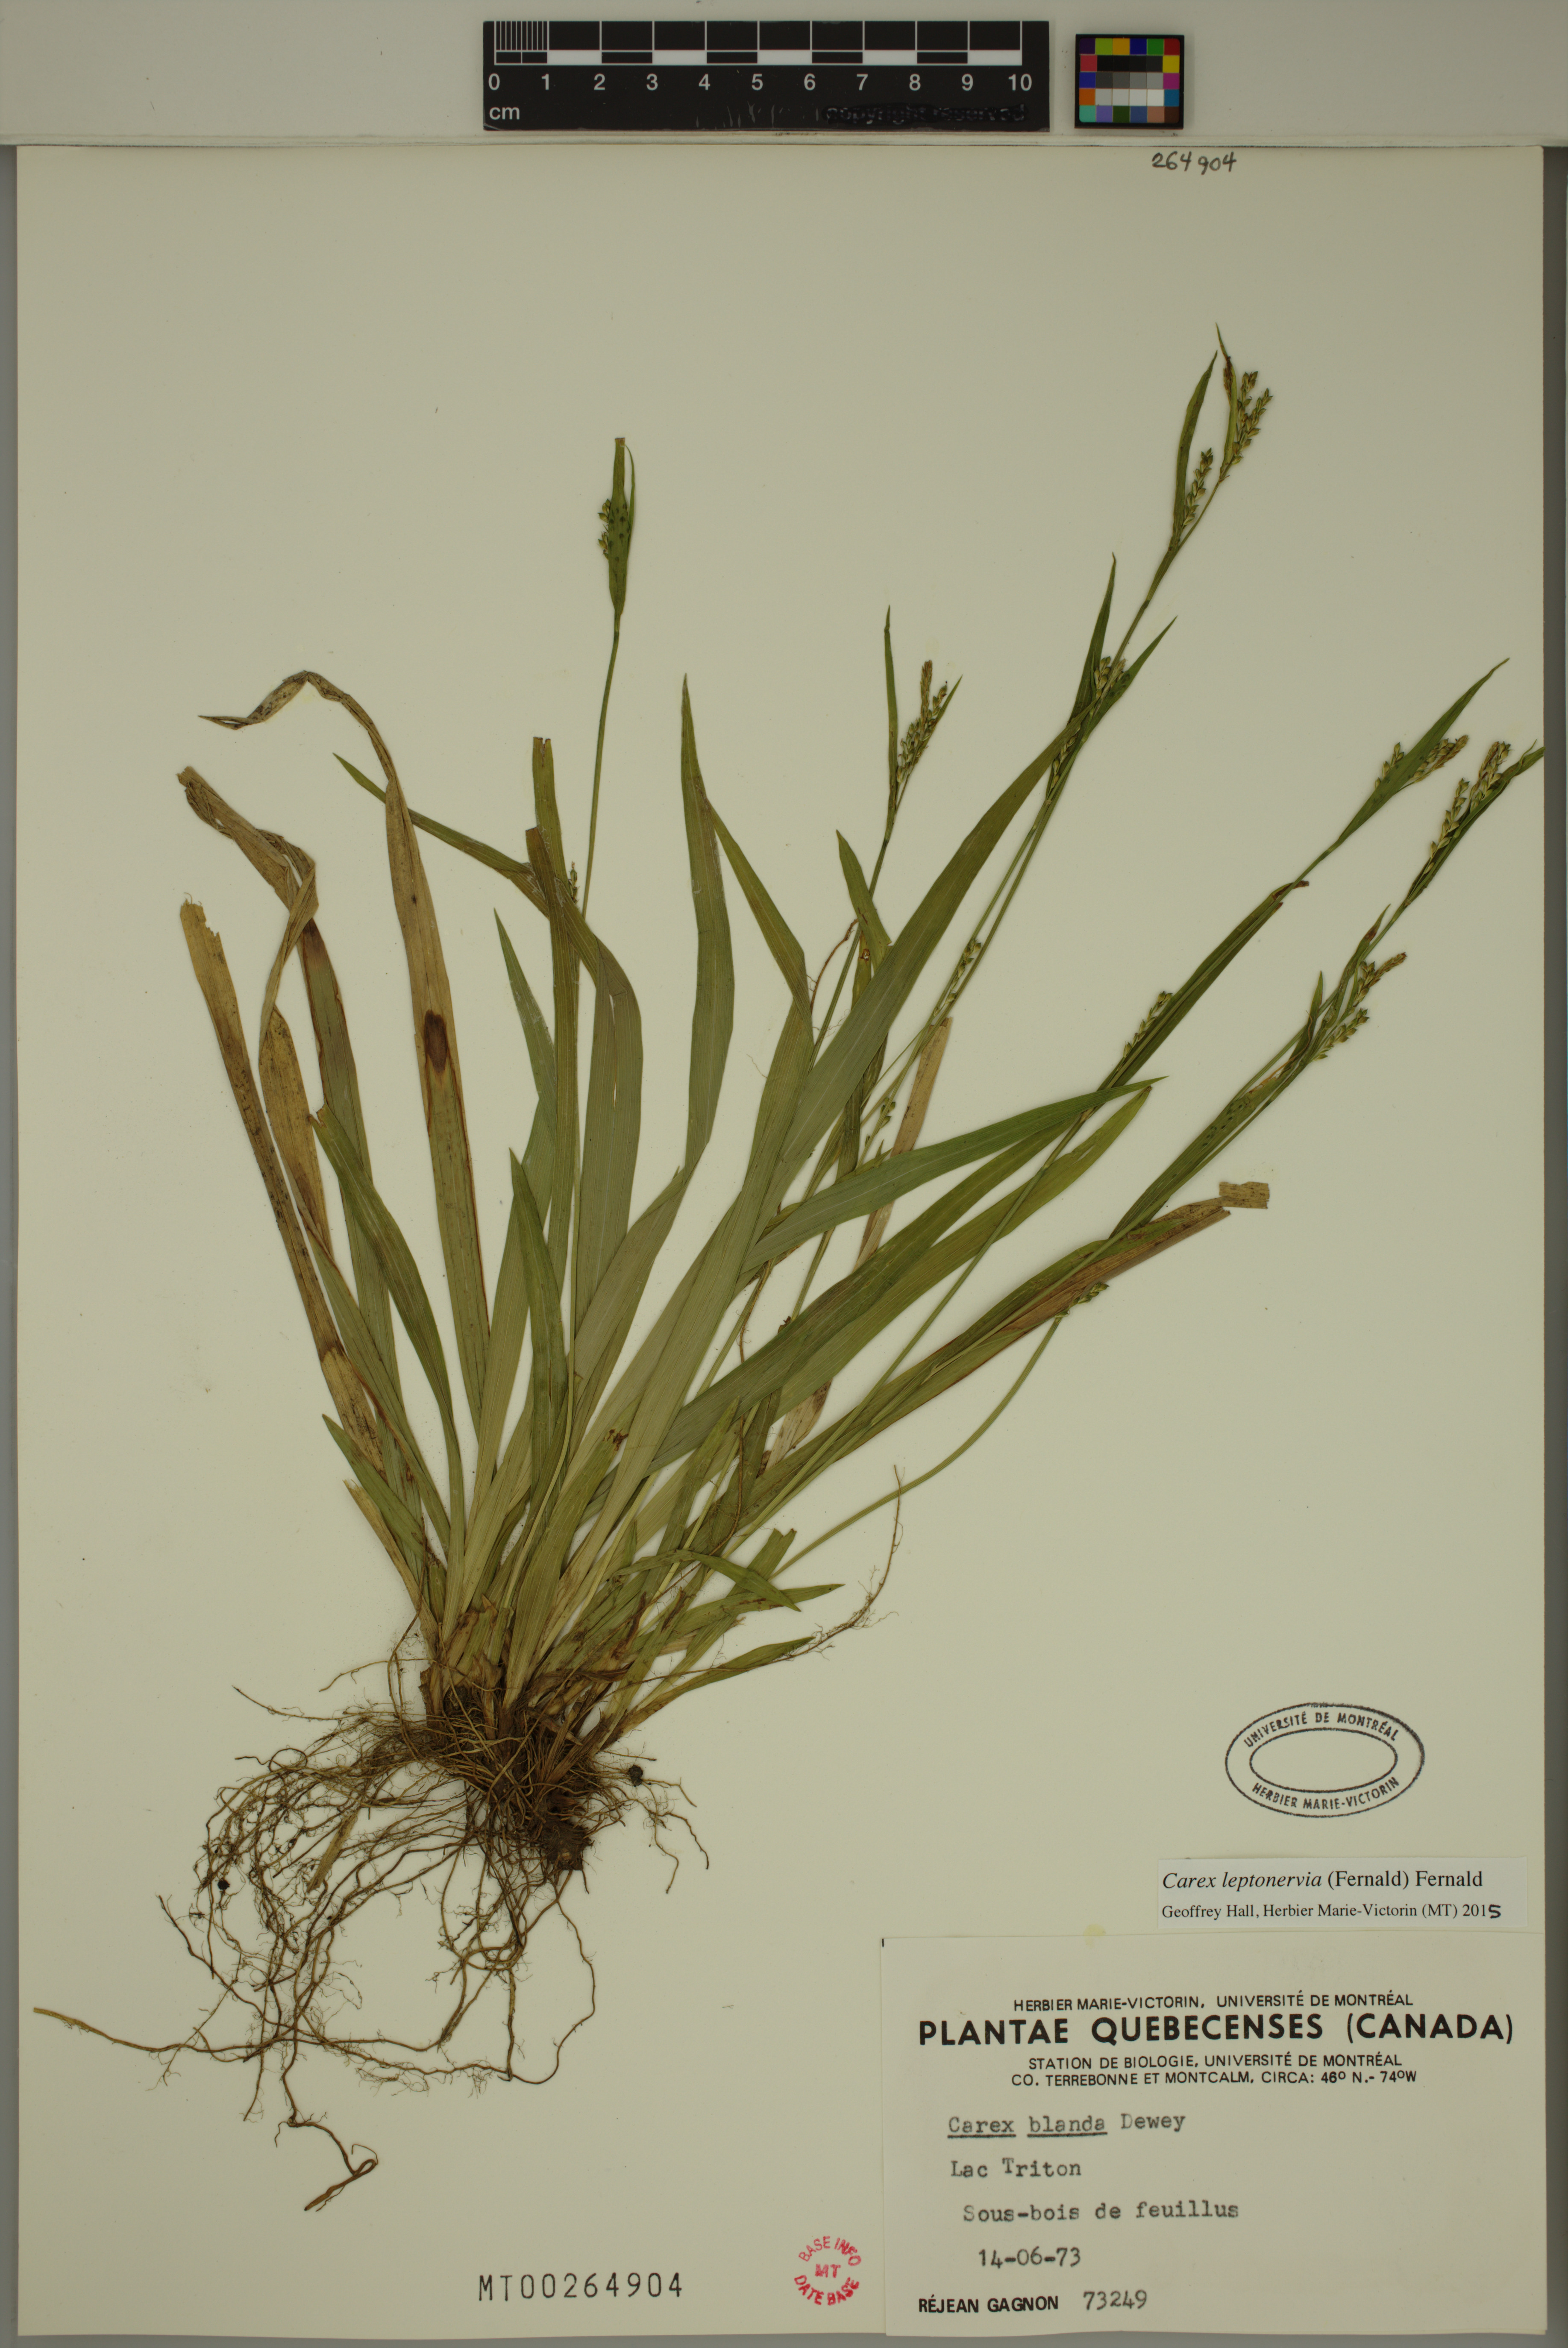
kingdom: Plantae
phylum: Tracheophyta
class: Liliopsida
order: Poales
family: Cyperaceae
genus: Carex
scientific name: Carex leptonervia
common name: Few-nerved wood sedge
